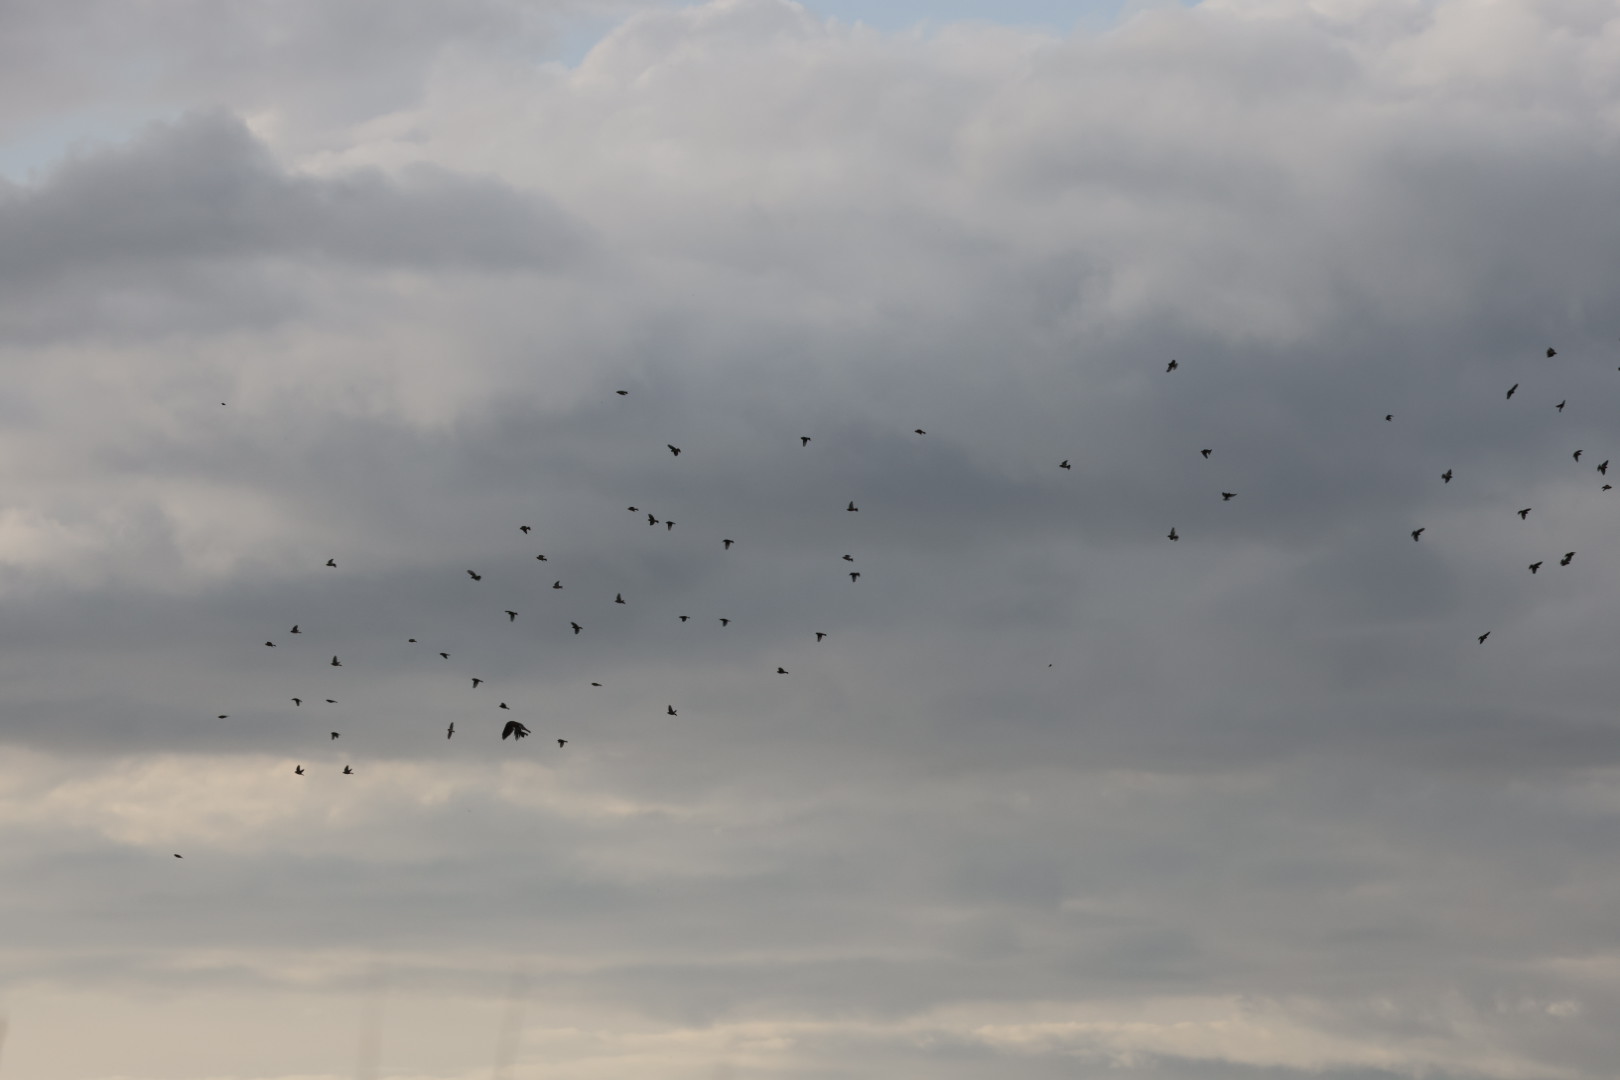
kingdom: Animalia
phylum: Chordata
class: Aves
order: Passeriformes
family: Fringillidae
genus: Carduelis
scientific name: Carduelis carduelis
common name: Stillits
